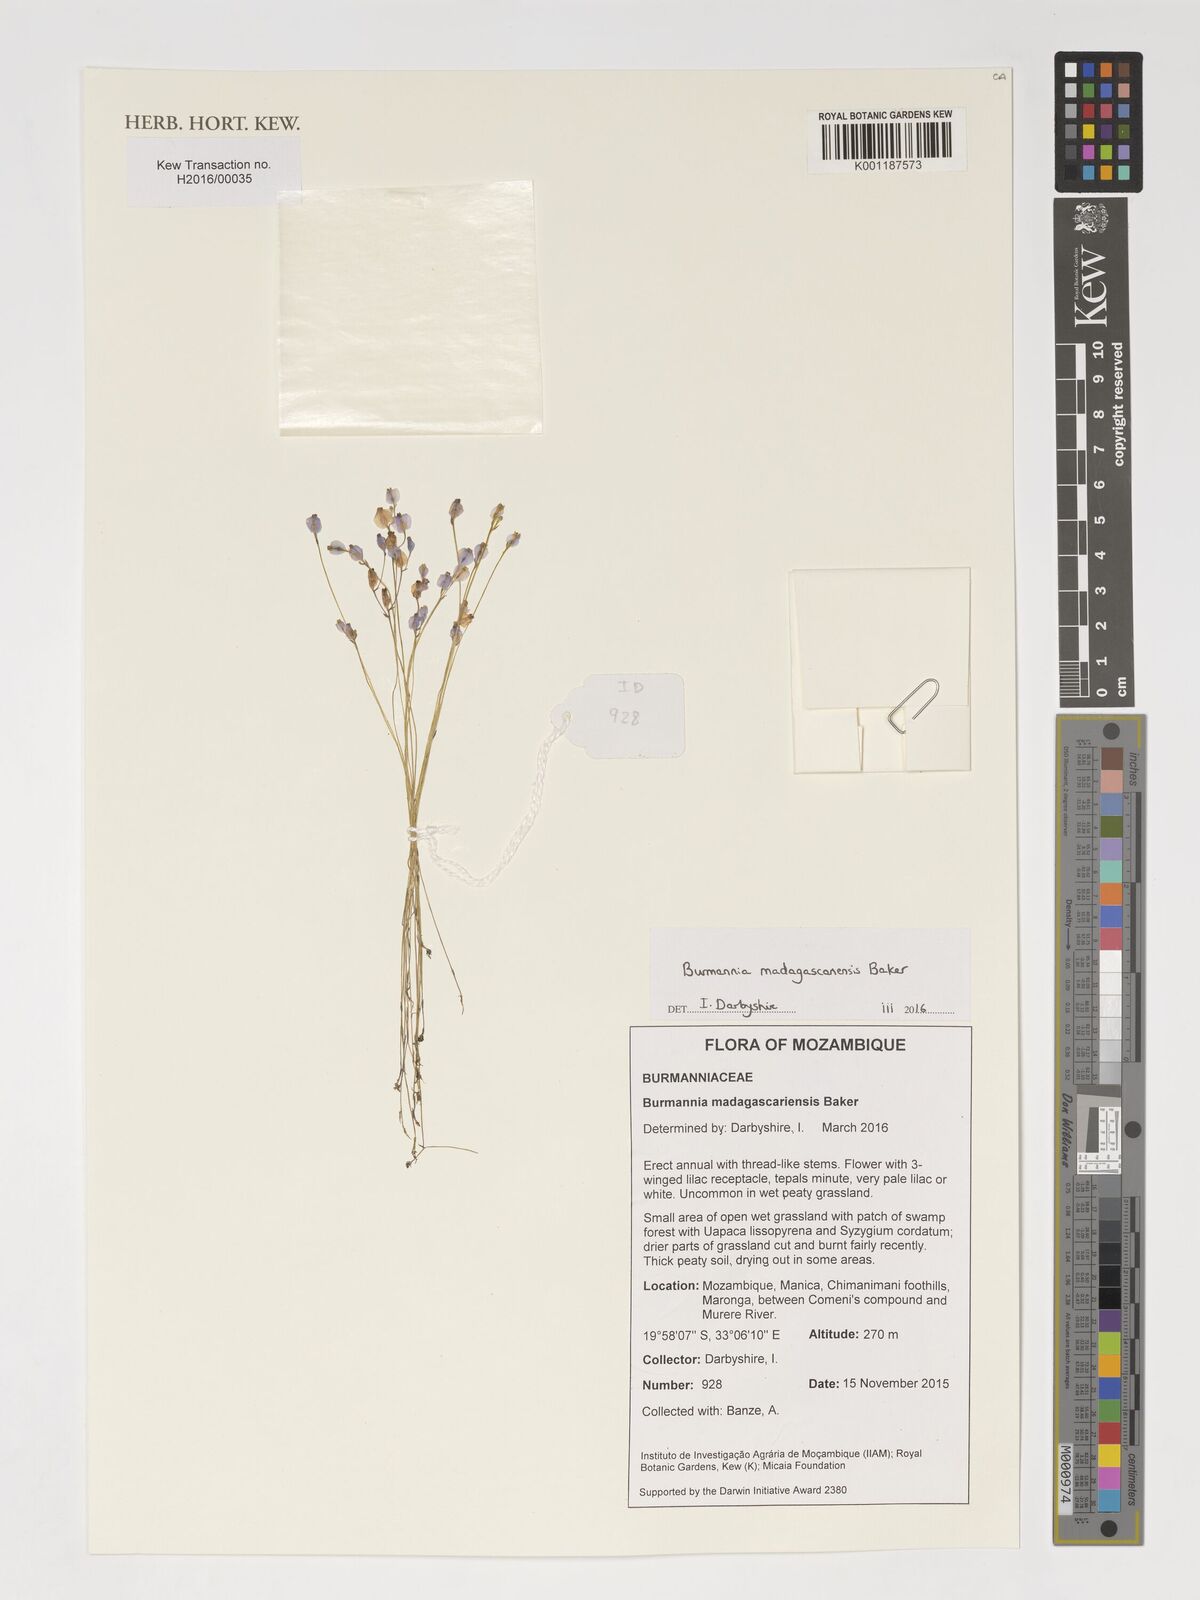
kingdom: Plantae
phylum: Tracheophyta
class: Liliopsida
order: Dioscoreales
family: Burmanniaceae
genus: Burmannia
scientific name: Burmannia madagascariensis
